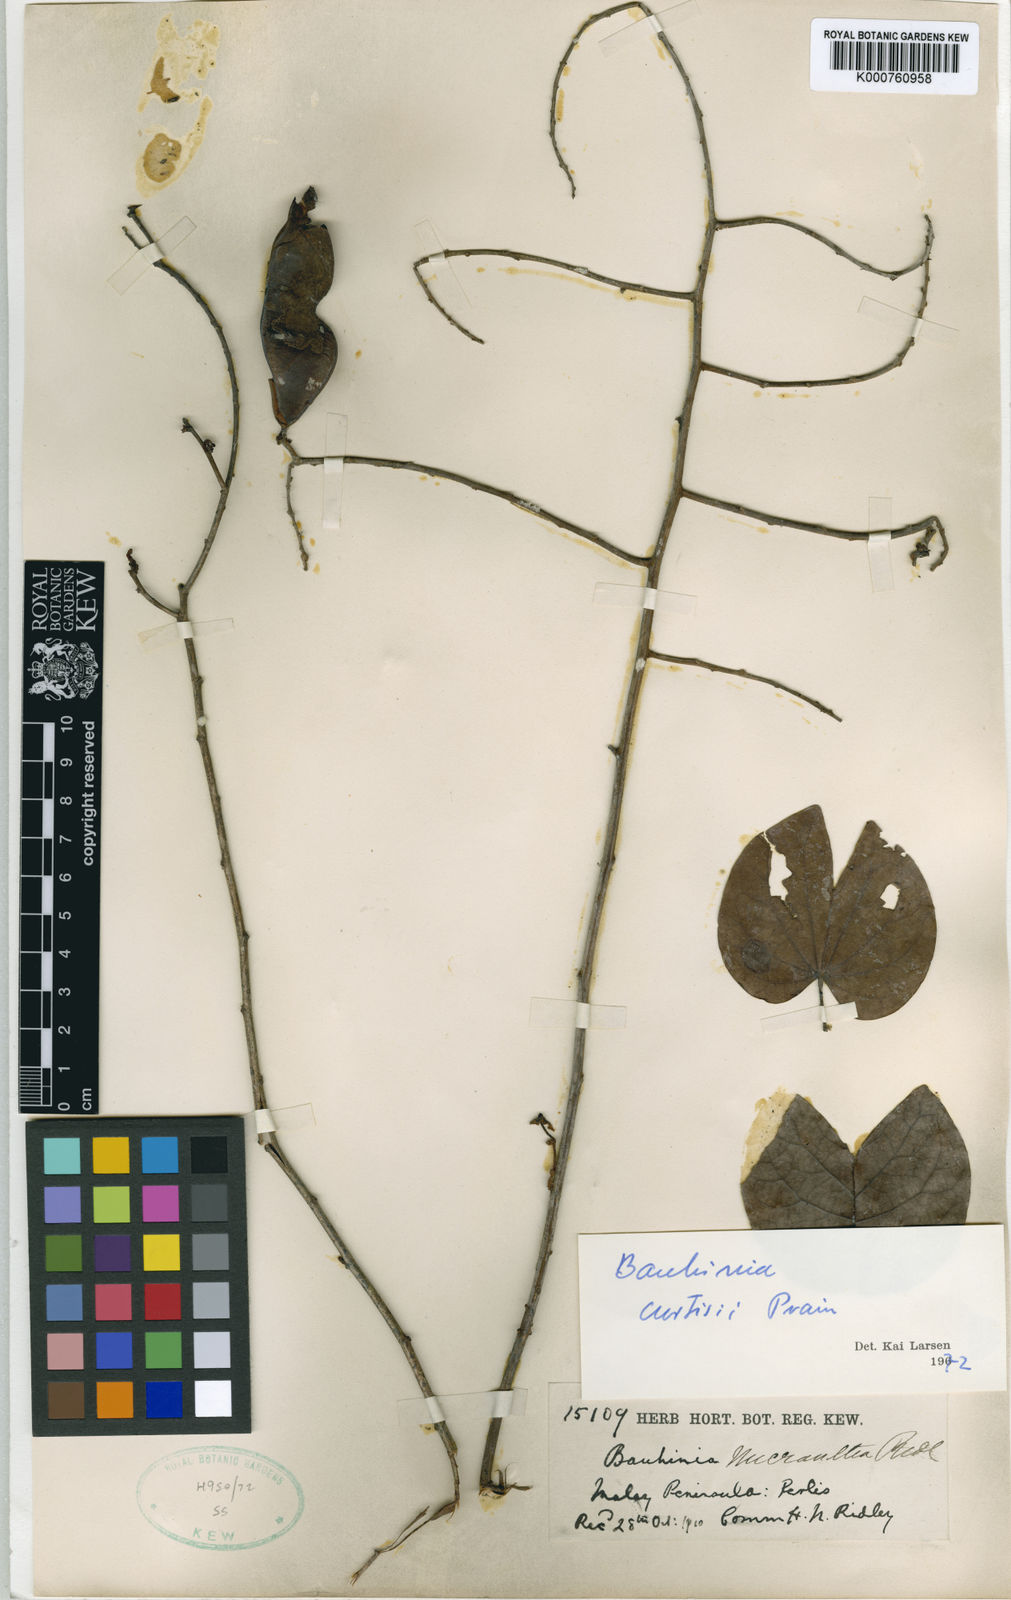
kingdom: Plantae
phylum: Tracheophyta
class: Magnoliopsida
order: Fabales
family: Fabaceae
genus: Bauhinia
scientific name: Bauhinia
